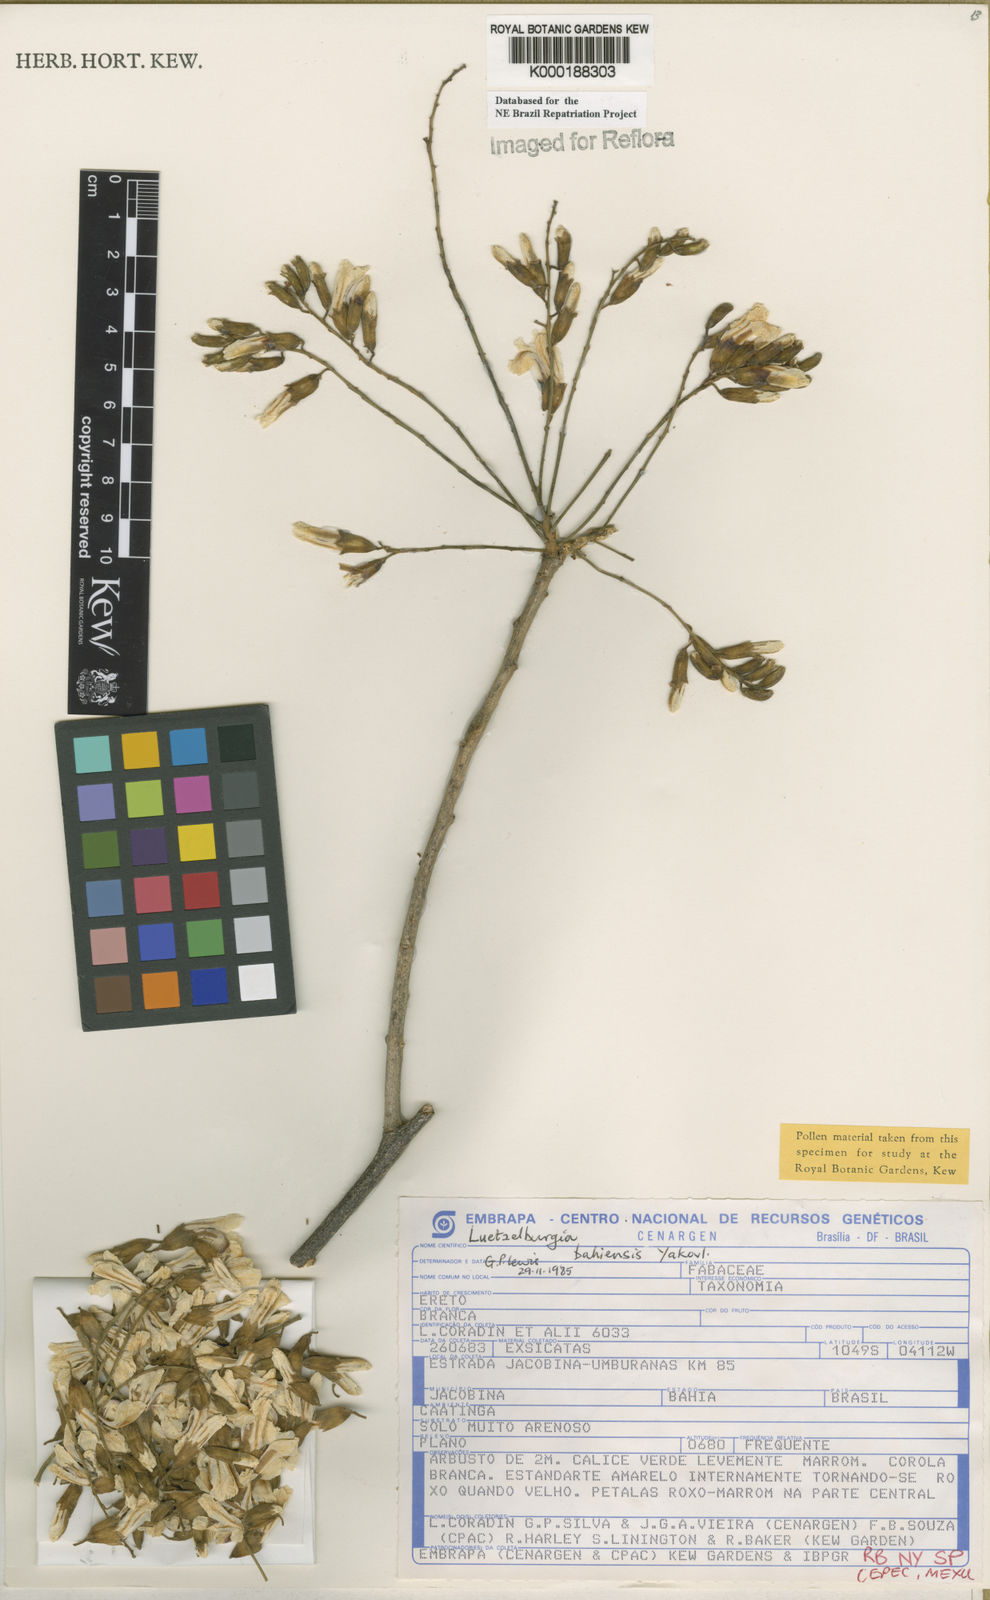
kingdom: Plantae
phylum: Tracheophyta
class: Magnoliopsida
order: Fabales
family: Fabaceae
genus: Luetzelburgia
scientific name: Luetzelburgia bahiensis
